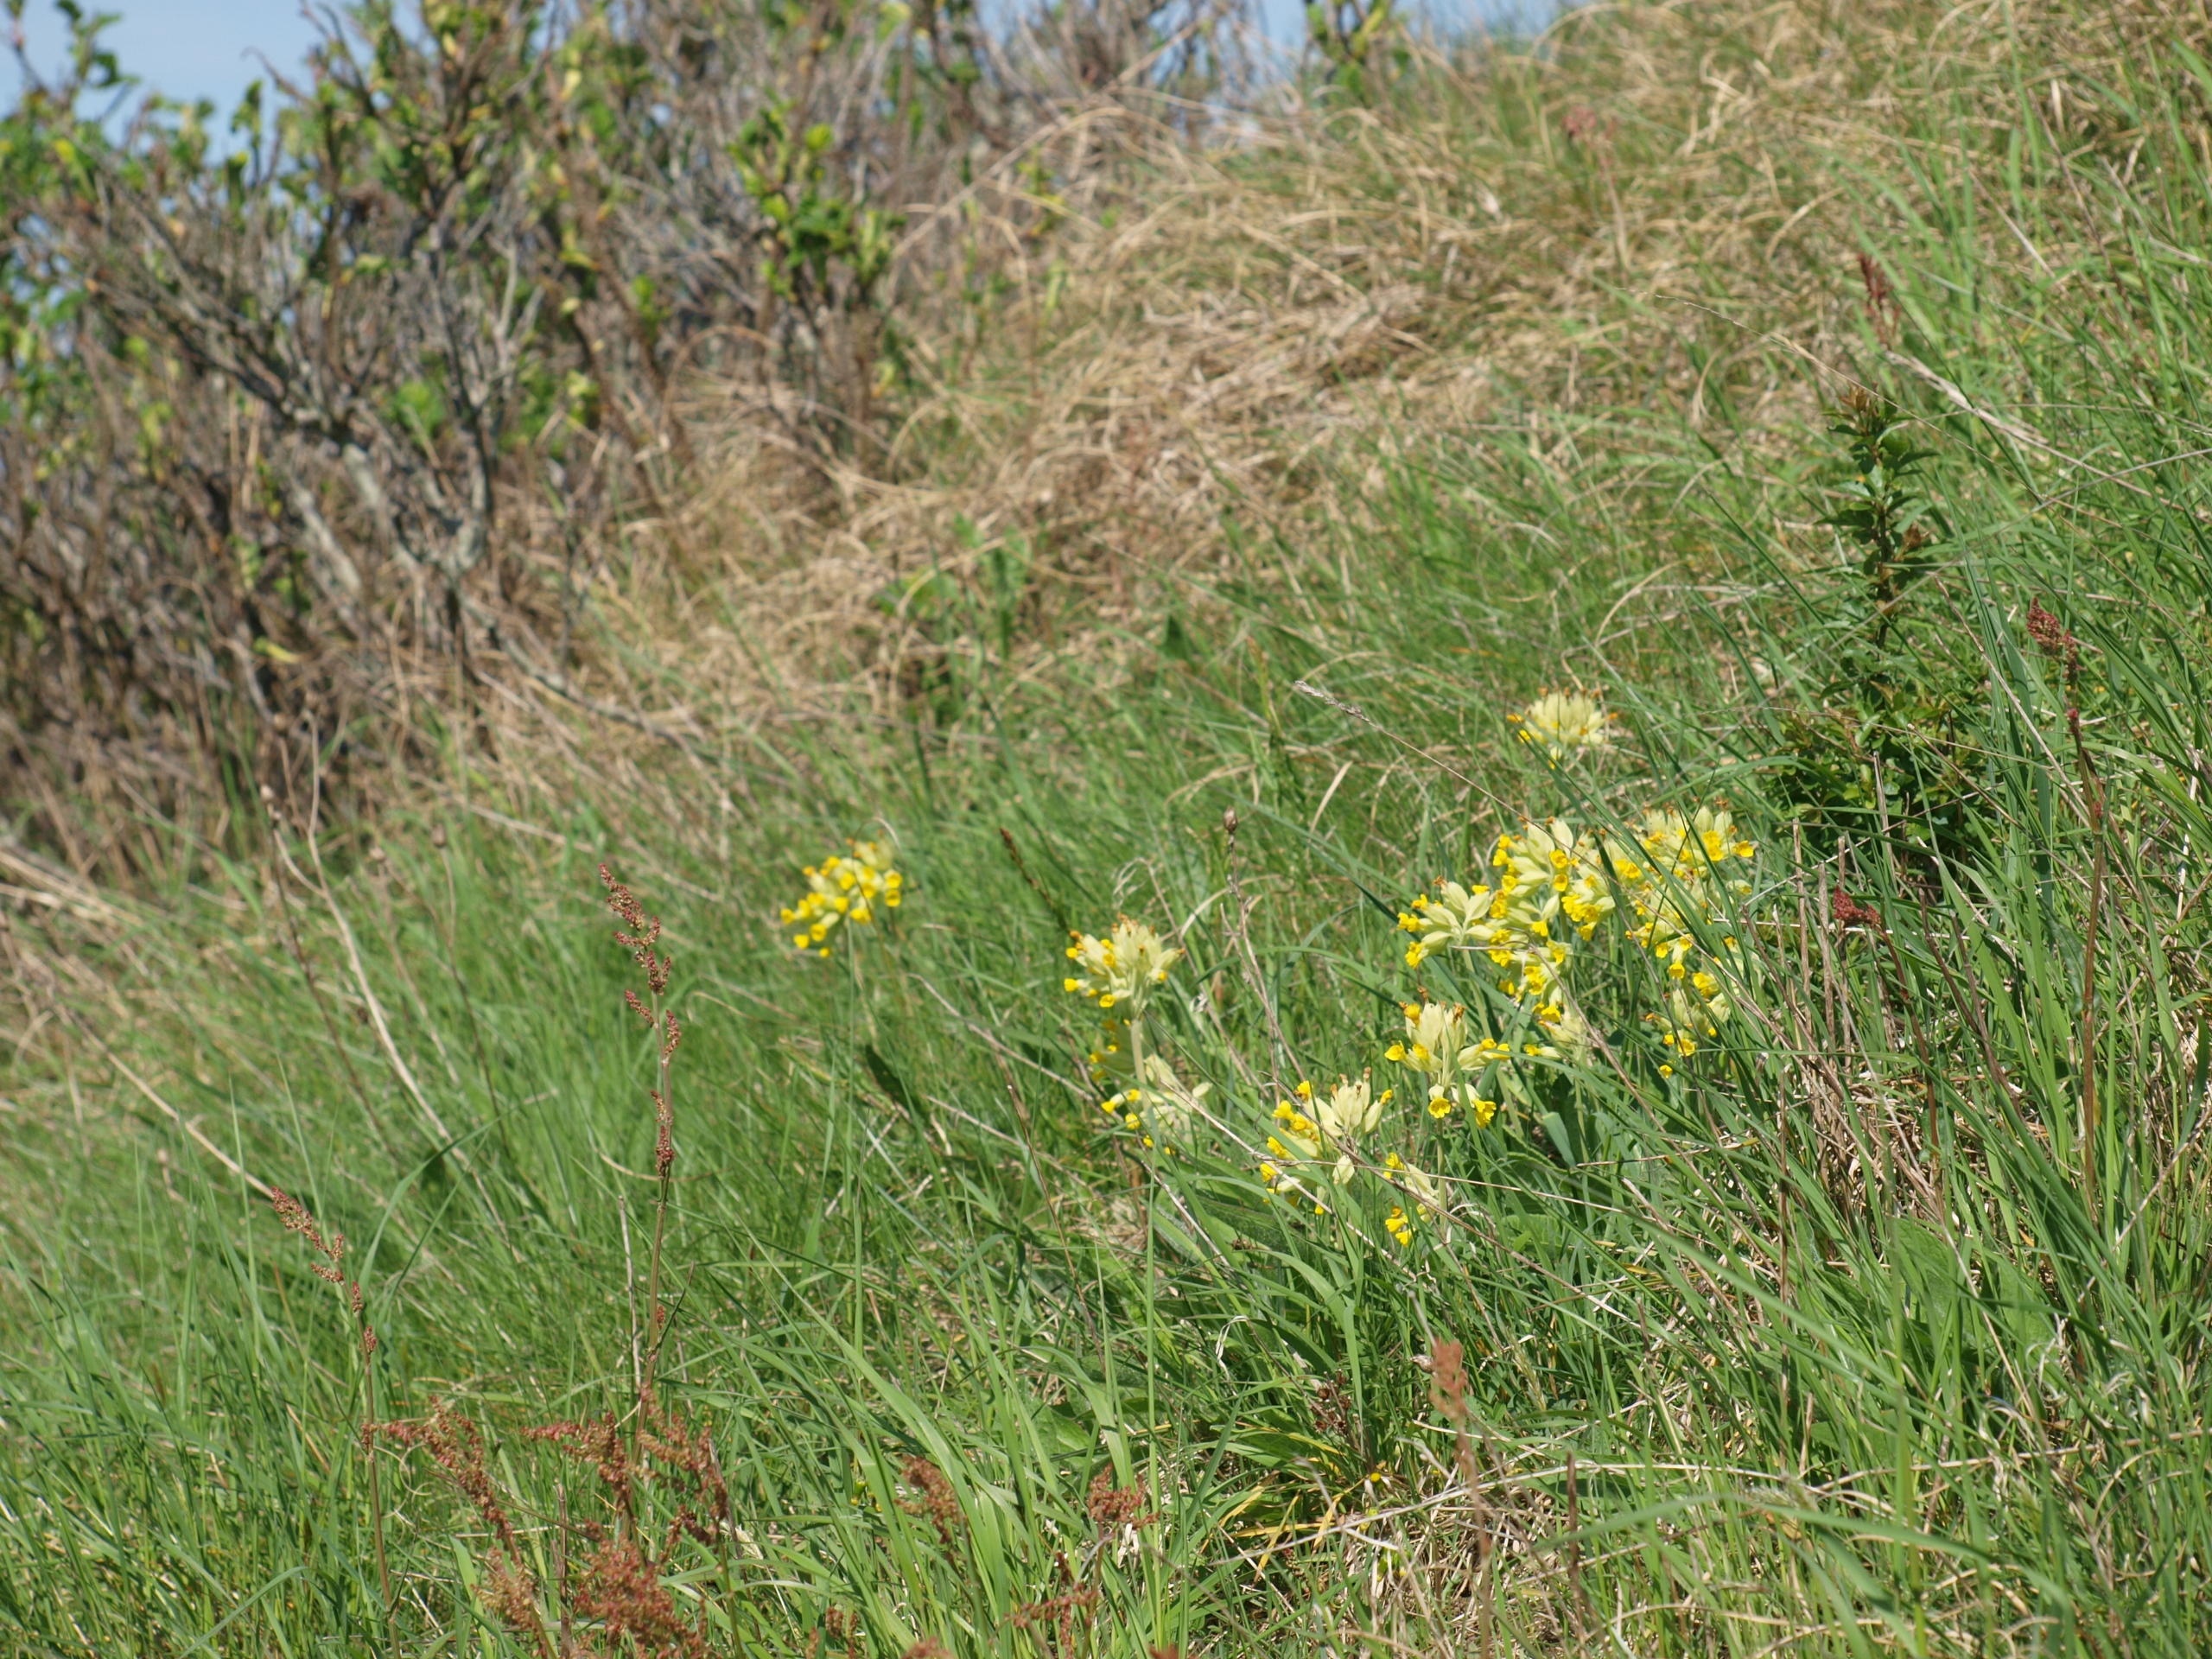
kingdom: Plantae
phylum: Tracheophyta
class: Magnoliopsida
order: Ericales
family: Primulaceae
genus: Primula
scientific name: Primula veris
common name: Hulkravet kodriver
